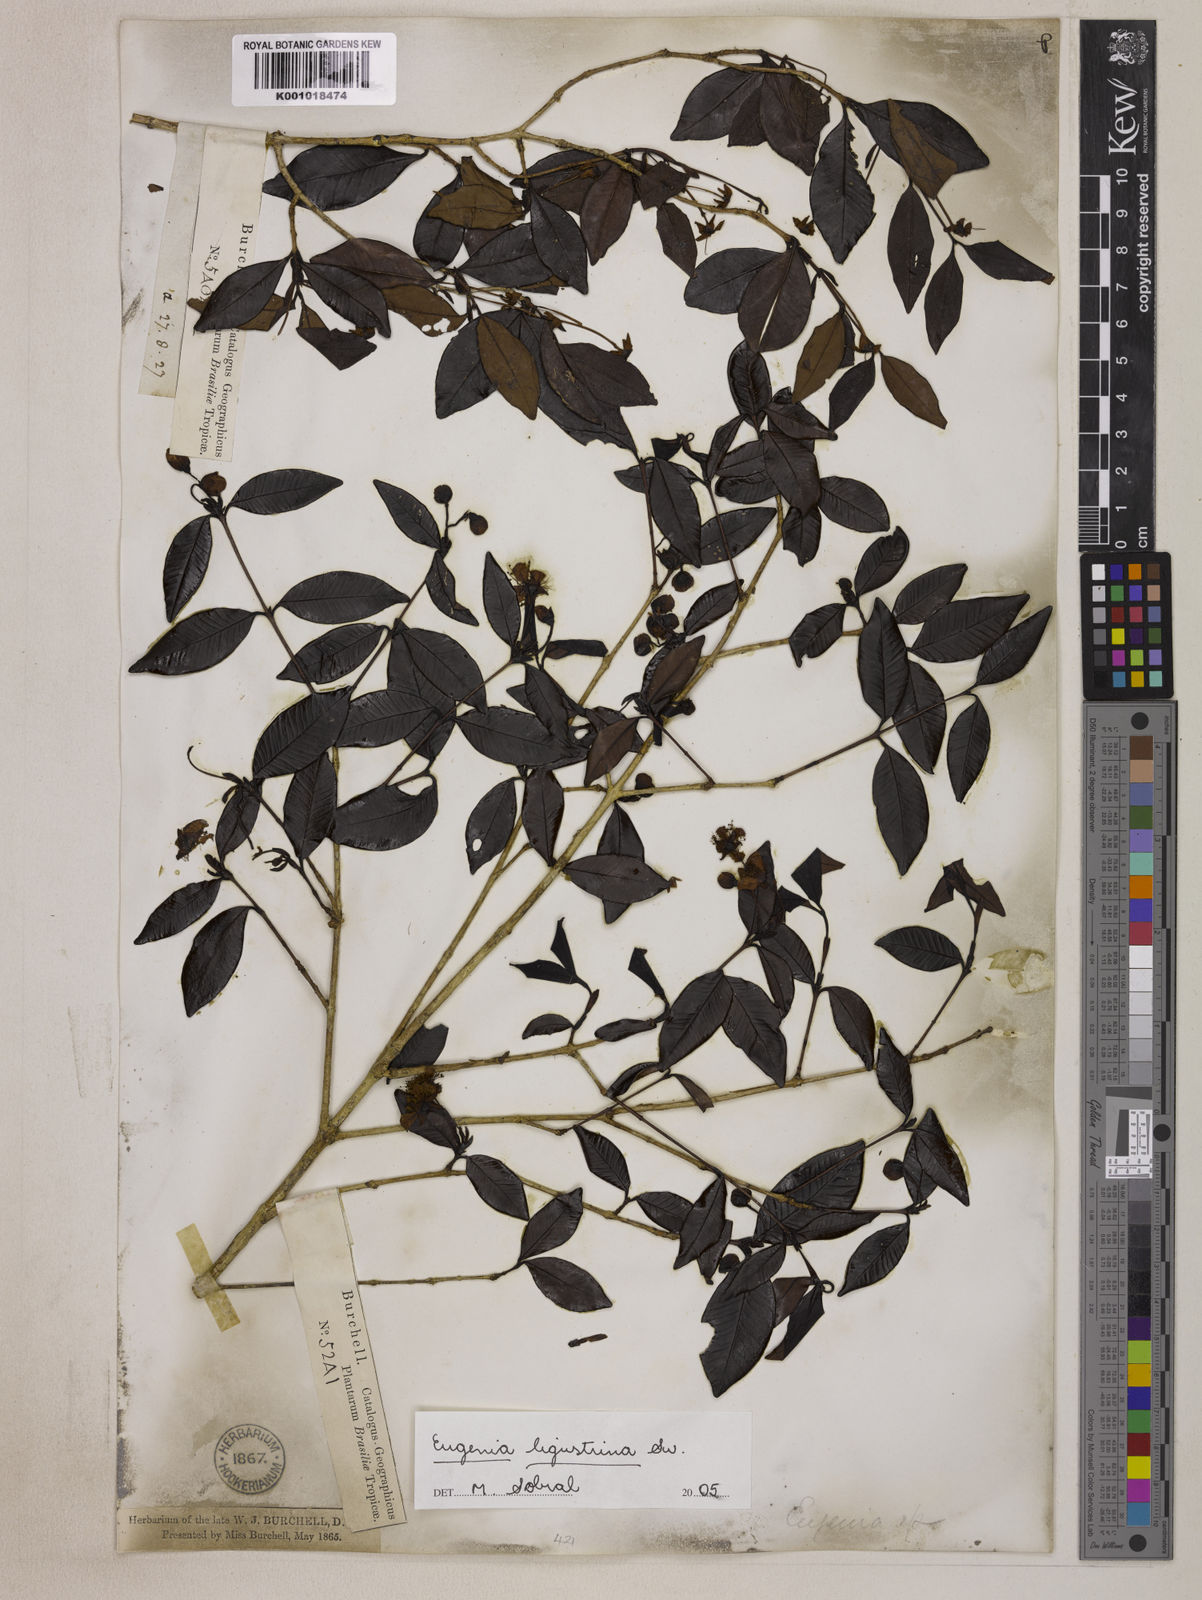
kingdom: Plantae
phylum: Tracheophyta
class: Magnoliopsida
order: Myrtales
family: Myrtaceae
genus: Eugenia
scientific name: Eugenia ligustrina
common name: Privet stopper
